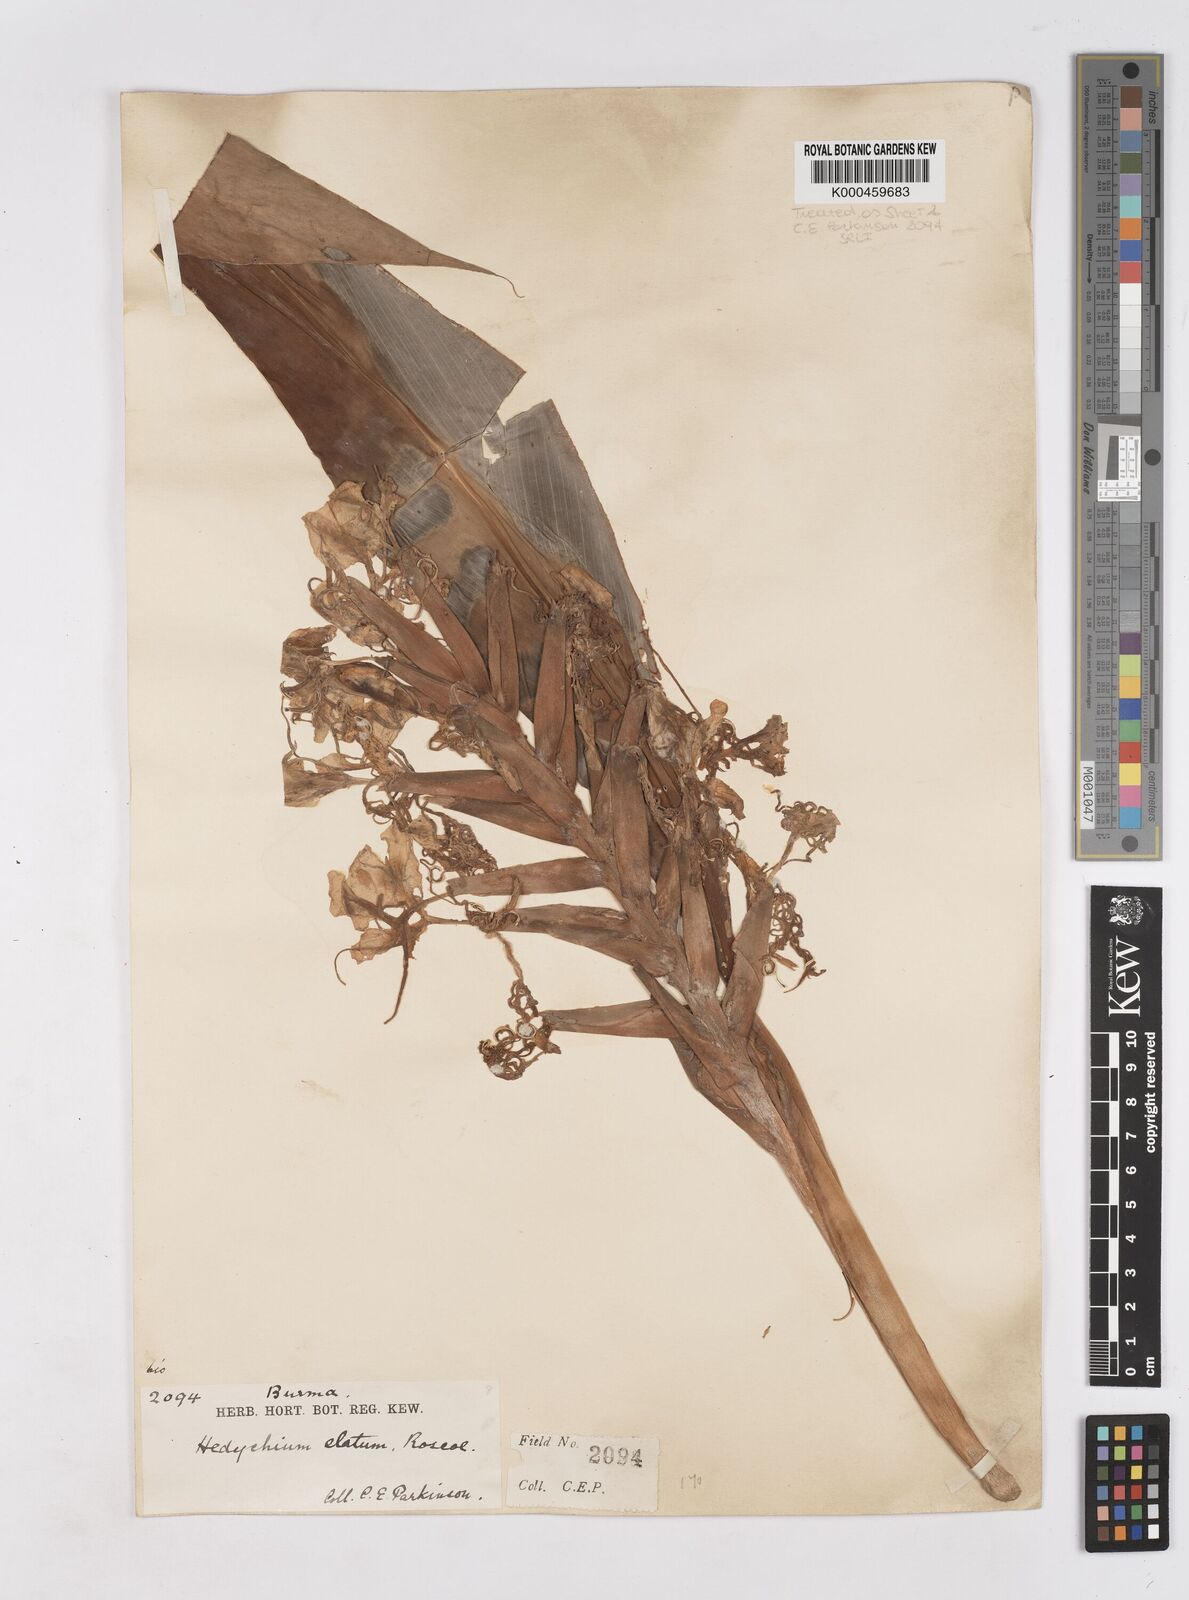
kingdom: Plantae
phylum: Tracheophyta
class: Liliopsida
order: Zingiberales
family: Zingiberaceae
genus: Hedychium
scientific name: Hedychium elatum
